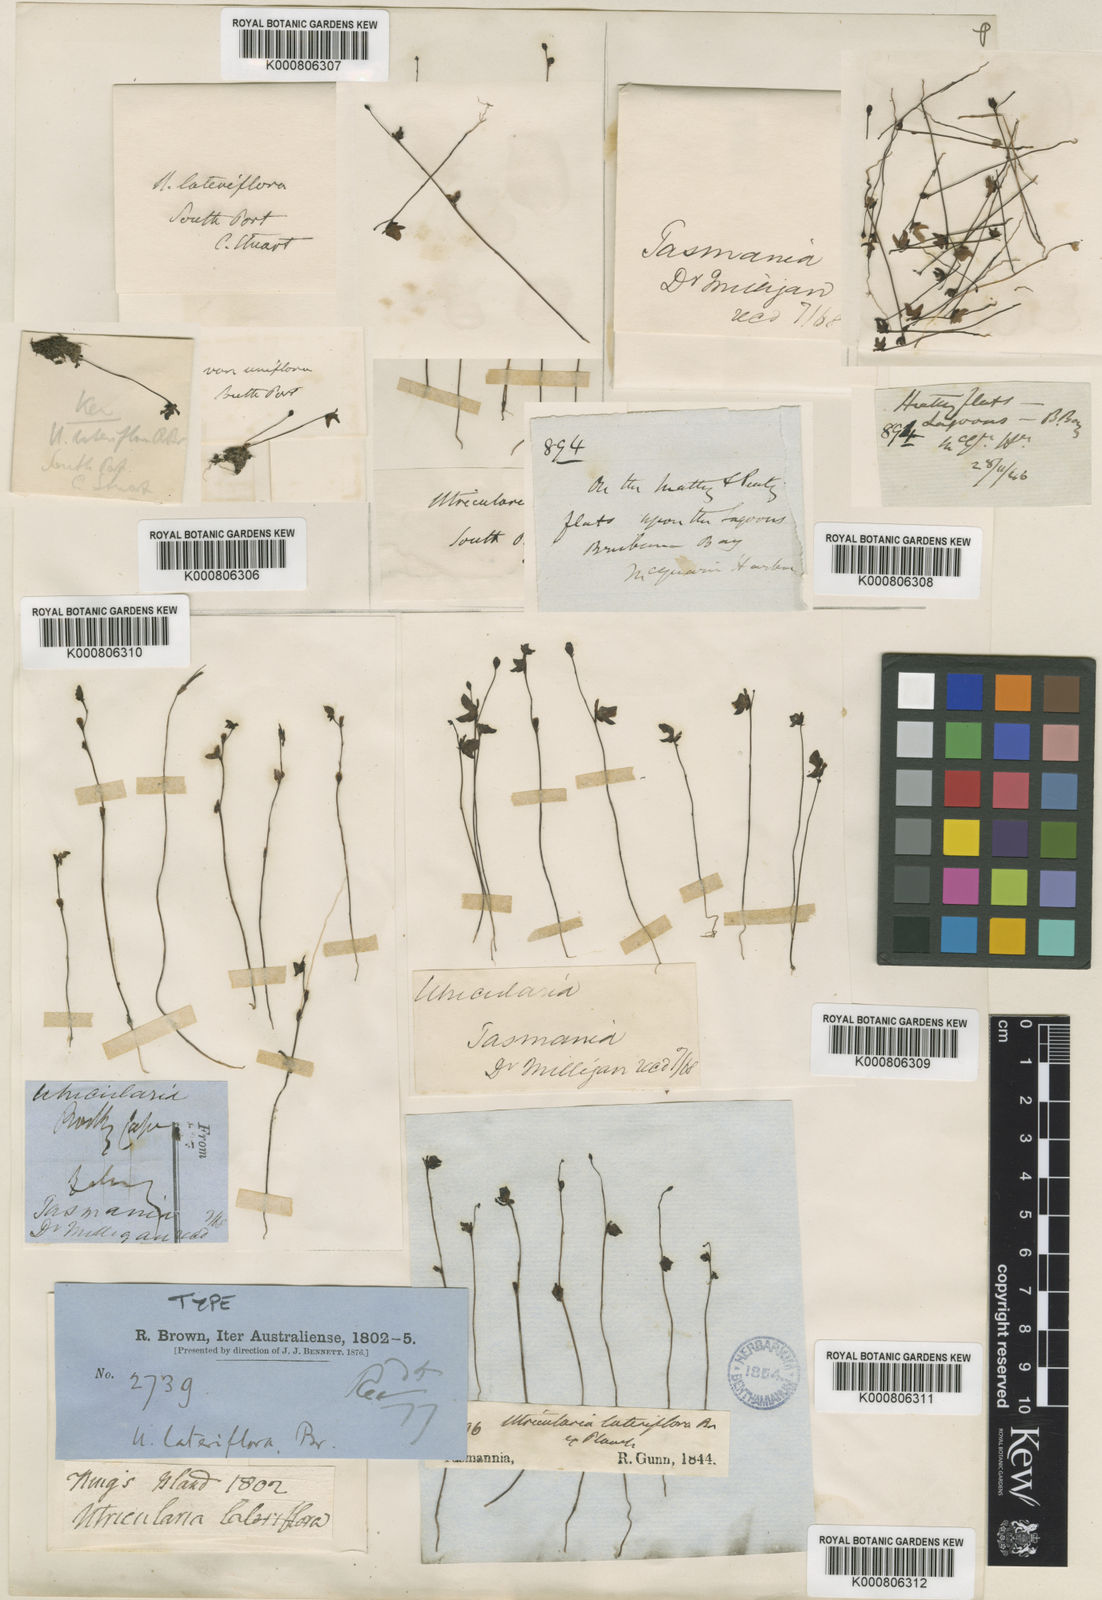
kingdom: Plantae
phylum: Tracheophyta
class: Magnoliopsida
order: Lamiales
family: Lentibulariaceae
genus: Utricularia
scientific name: Utricularia lateriflora
